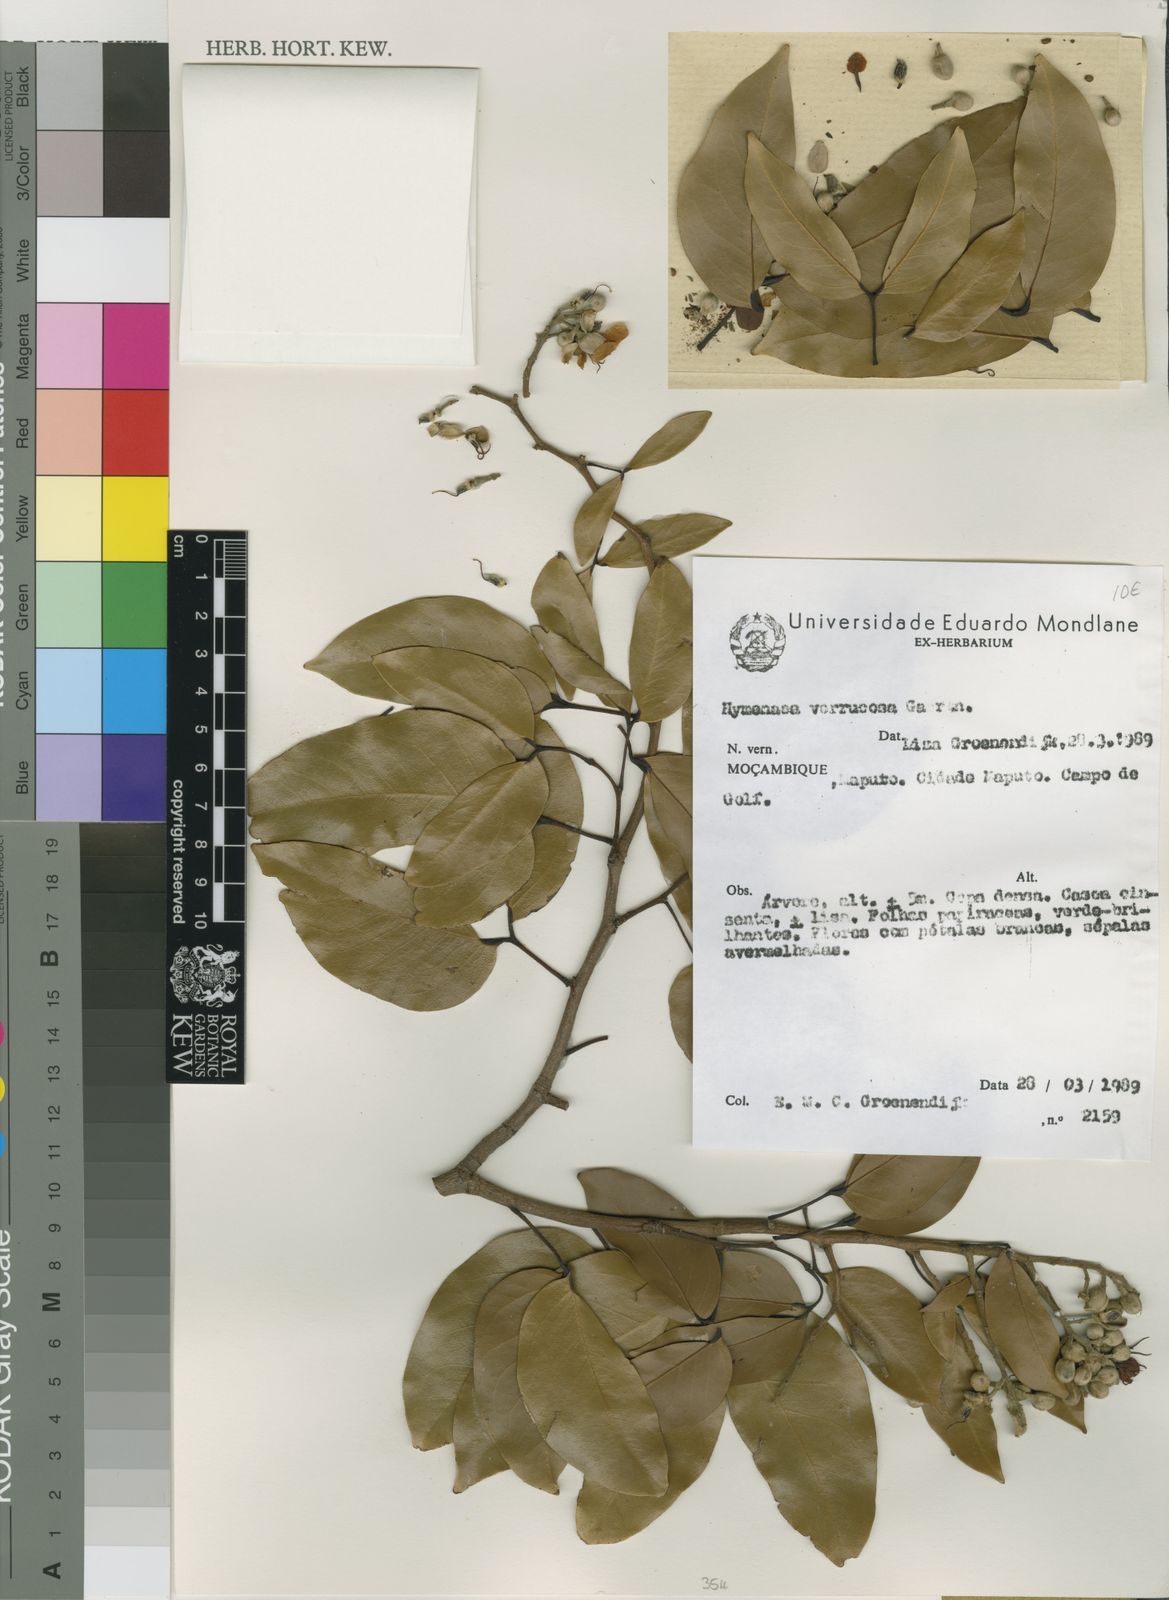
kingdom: Plantae
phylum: Tracheophyta
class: Magnoliopsida
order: Fabales
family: Fabaceae
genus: Hymenaea
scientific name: Hymenaea verrucosa
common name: East african copal
